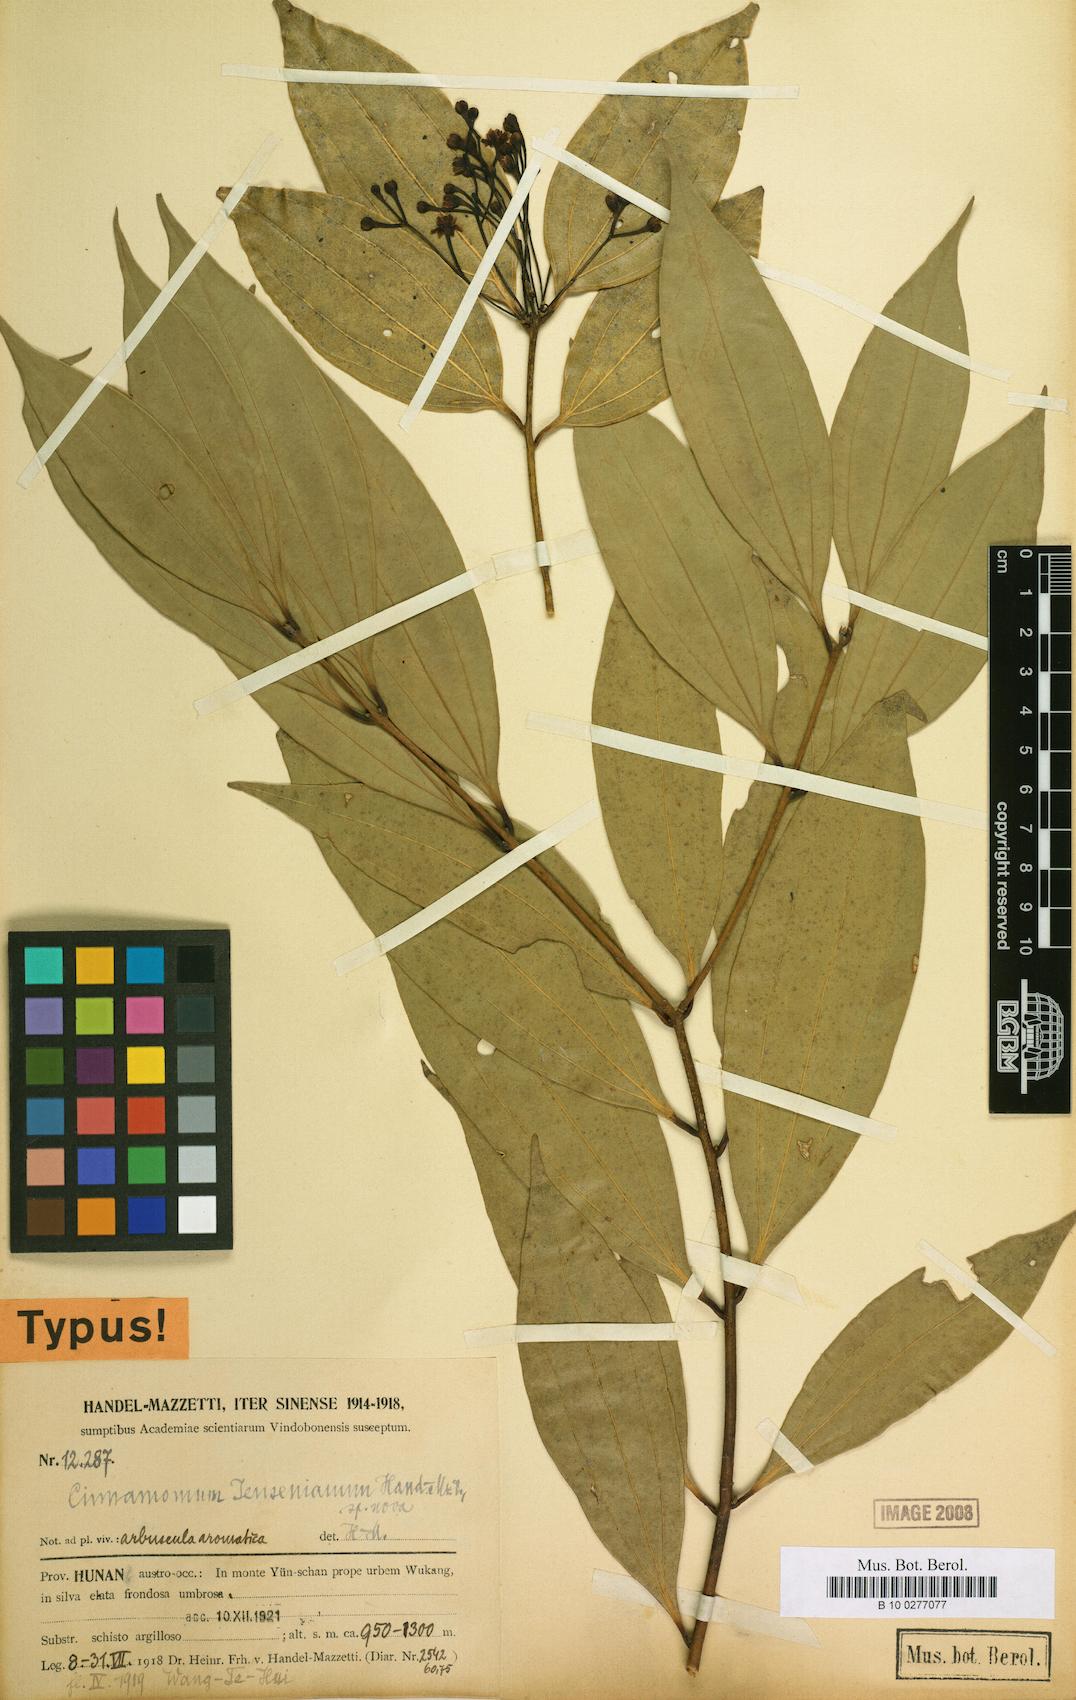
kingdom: Plantae
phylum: Tracheophyta
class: Magnoliopsida
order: Laurales
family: Lauraceae
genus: Cinnamomum
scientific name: Cinnamomum mairei
